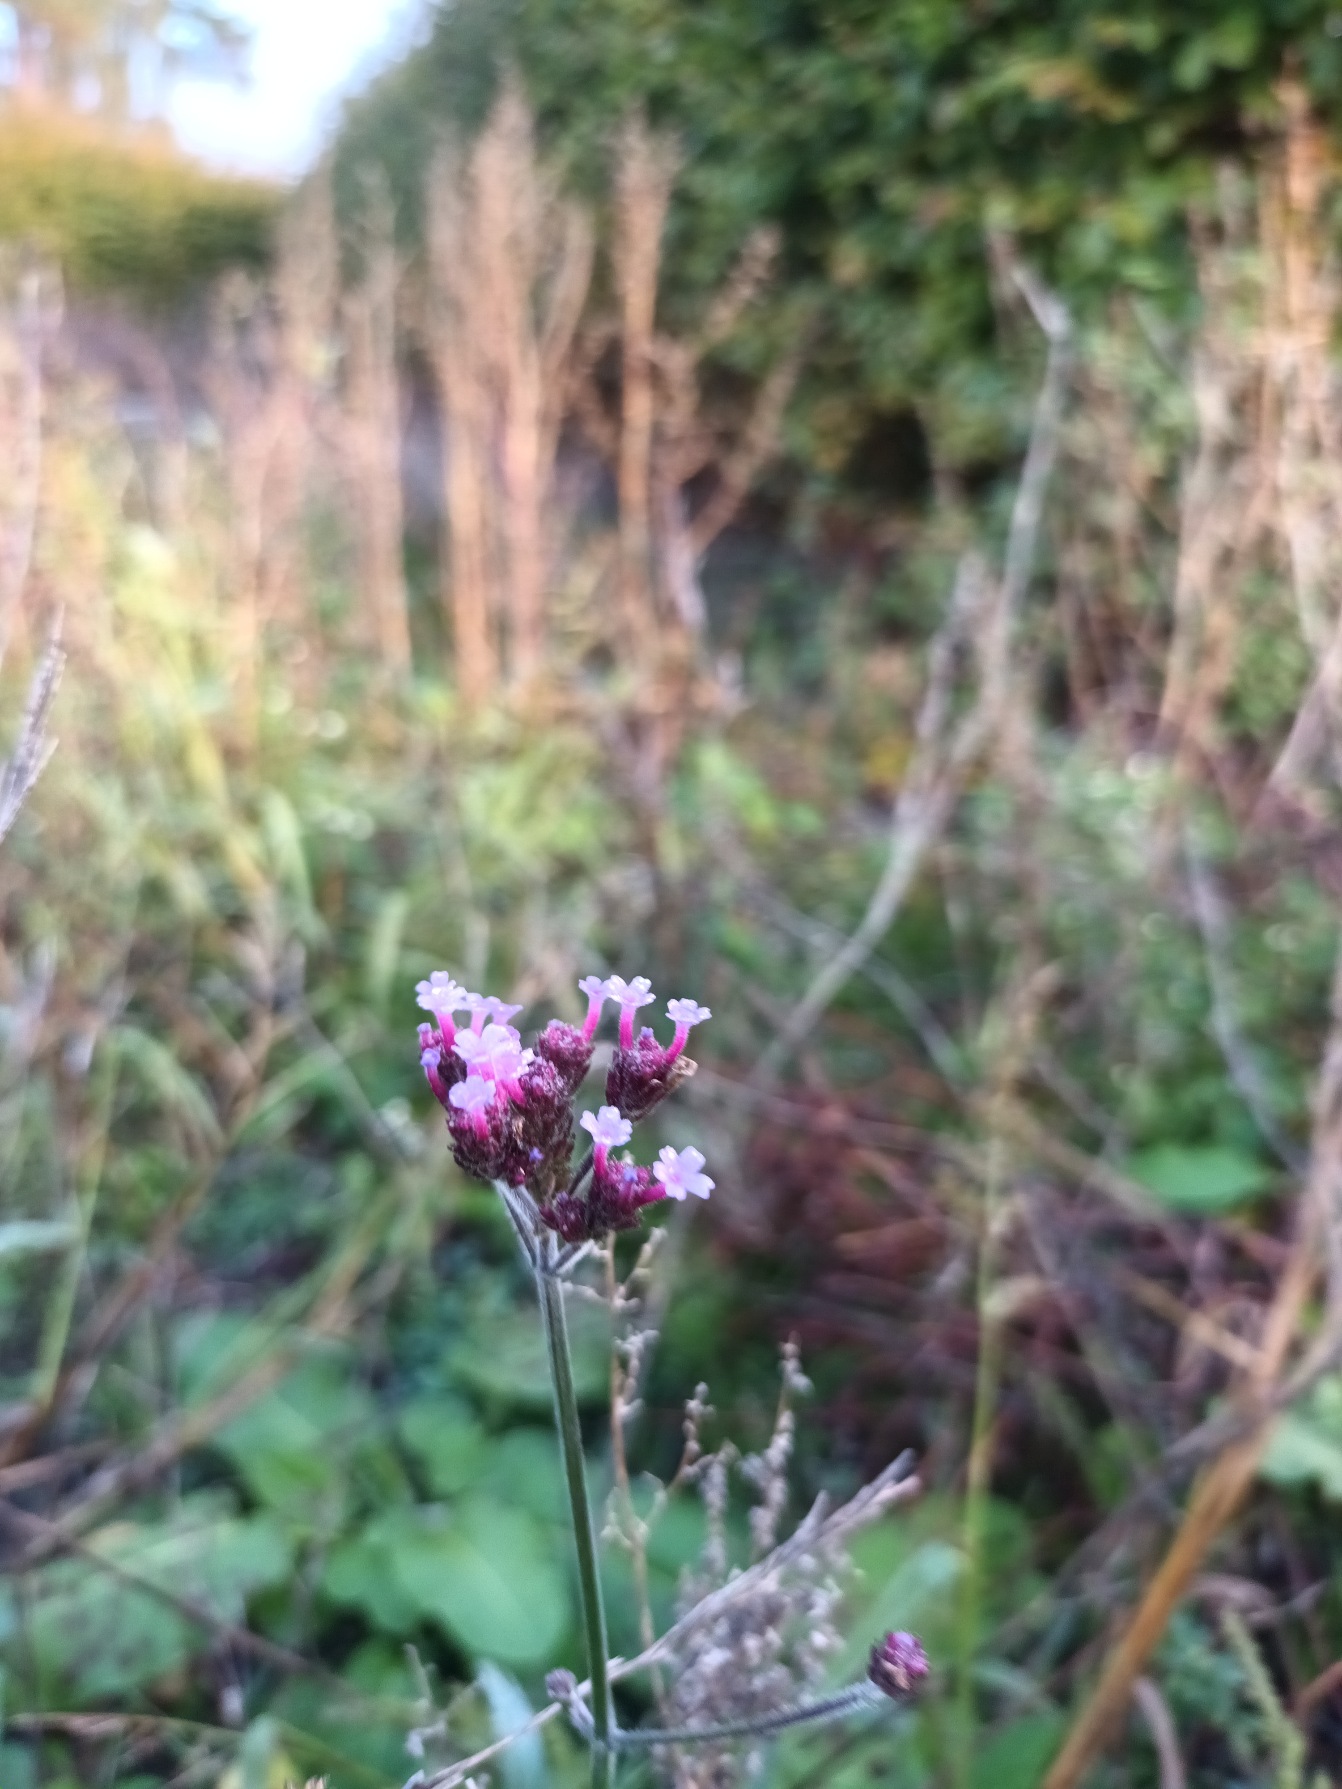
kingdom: Plantae
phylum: Tracheophyta
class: Magnoliopsida
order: Lamiales
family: Verbenaceae
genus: Verbena
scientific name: Verbena bonariensis
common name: Kæmpe-jernurt
